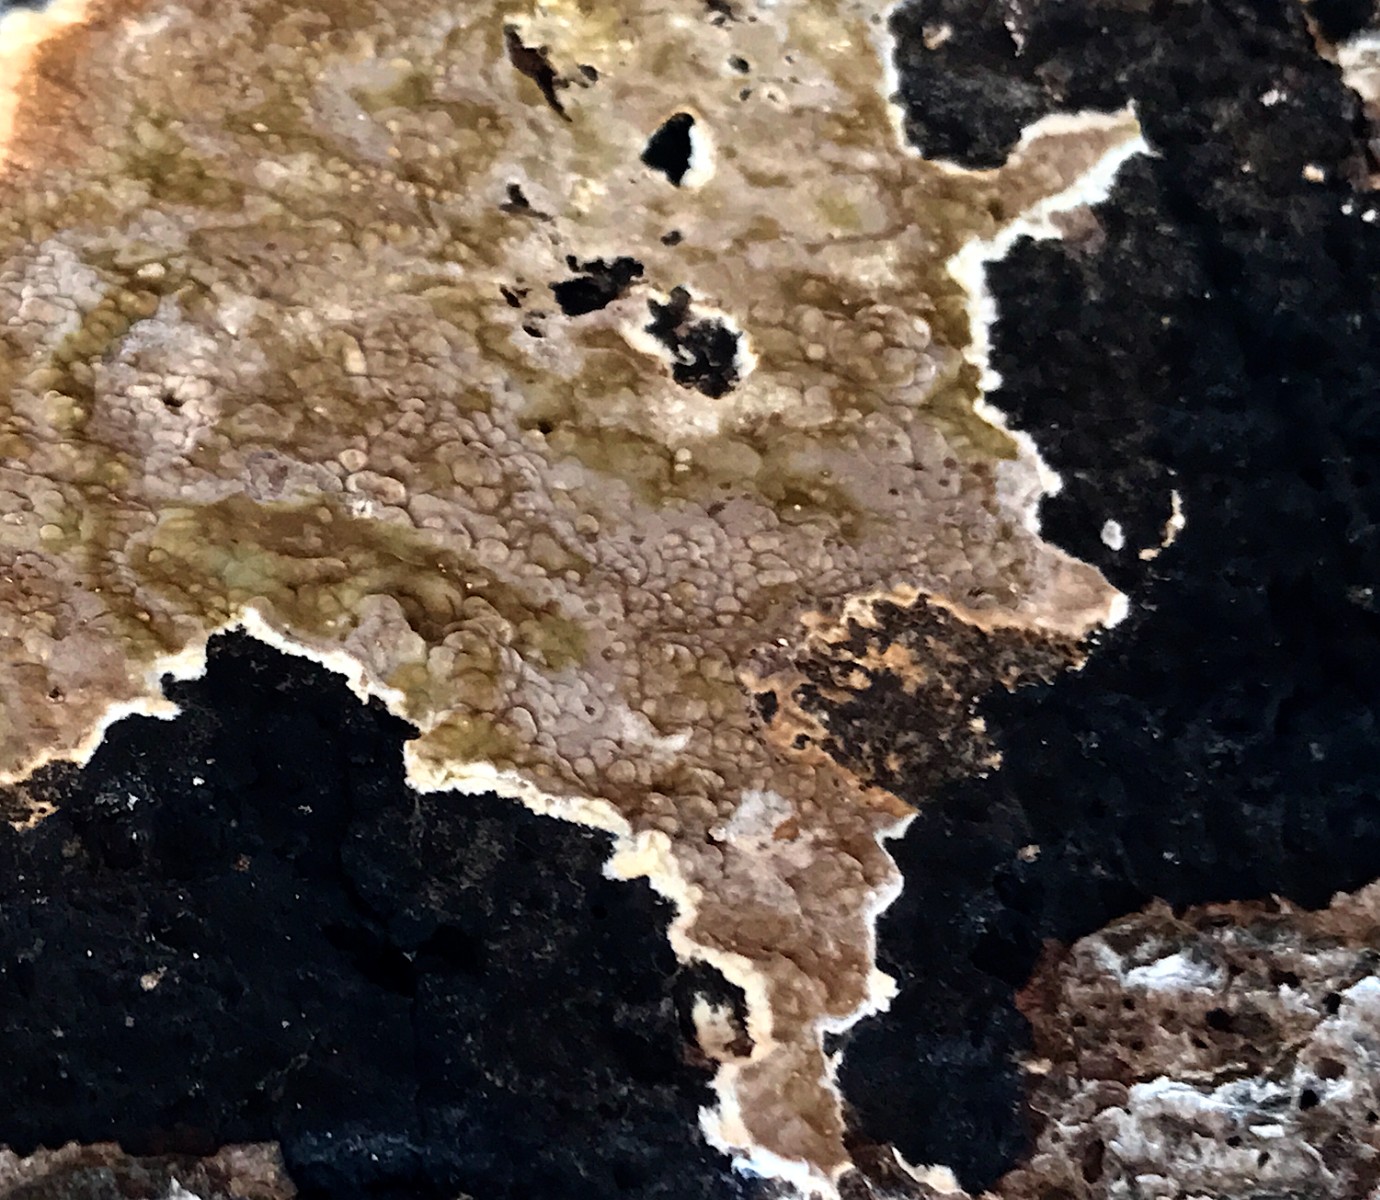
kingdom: Fungi
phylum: Basidiomycota
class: Agaricomycetes
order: Boletales
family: Coniophoraceae
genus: Coniophora
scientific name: Coniophora puteana
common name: gul tømmersvamp
